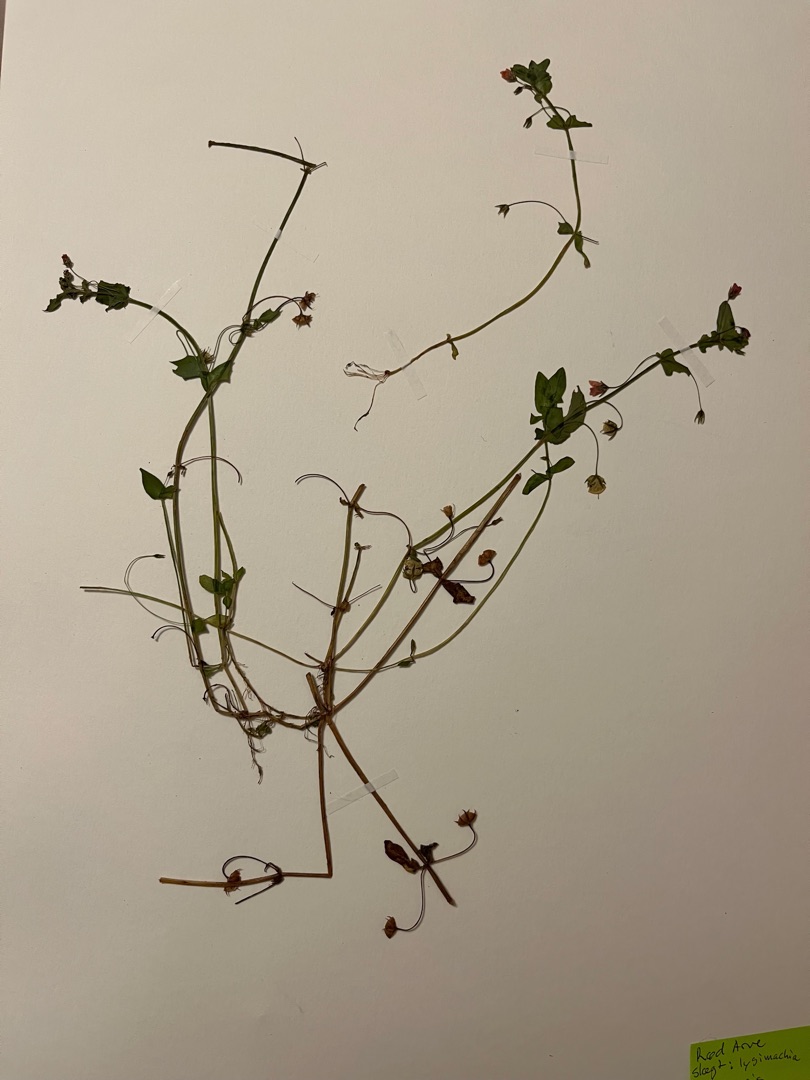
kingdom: Plantae
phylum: Tracheophyta
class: Magnoliopsida
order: Ericales
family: Primulaceae
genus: Lysimachia
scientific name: Lysimachia arvensis
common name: Rød arve
